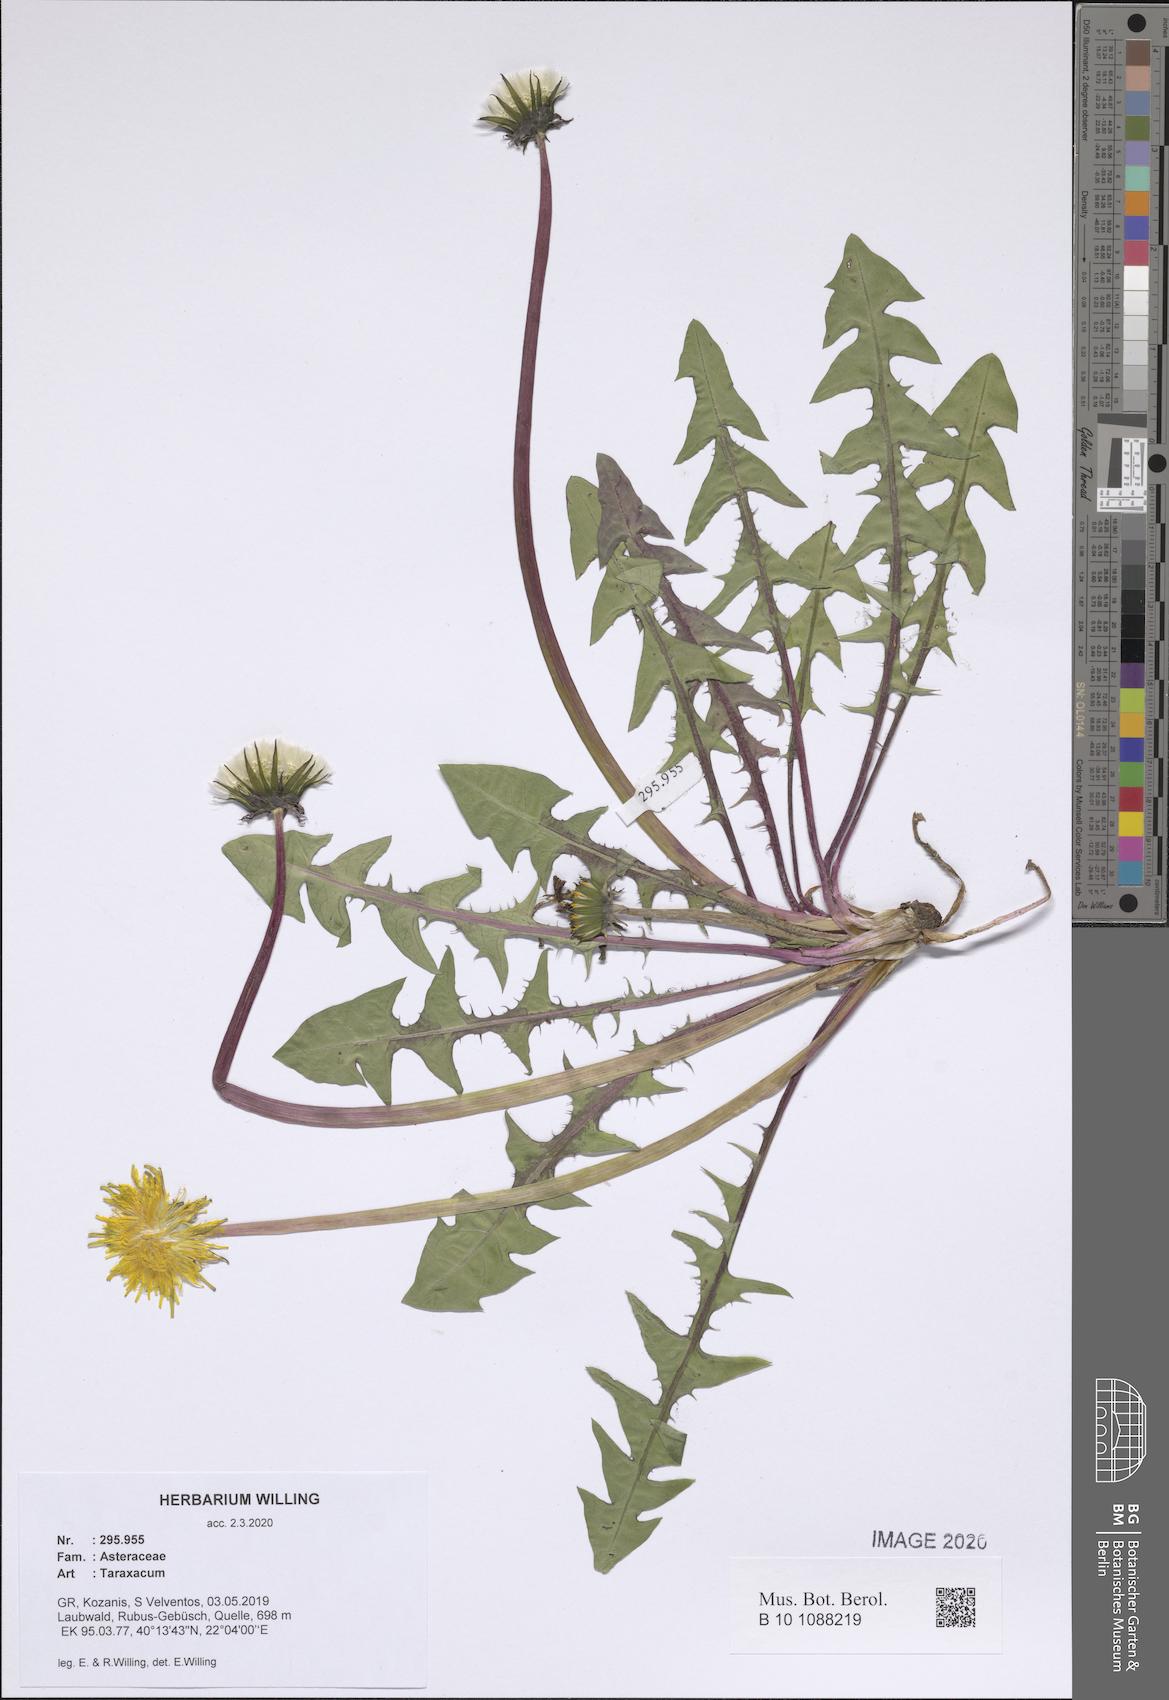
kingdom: Plantae
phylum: Tracheophyta
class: Magnoliopsida
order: Asterales
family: Asteraceae
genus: Taraxacum
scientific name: Taraxacum
